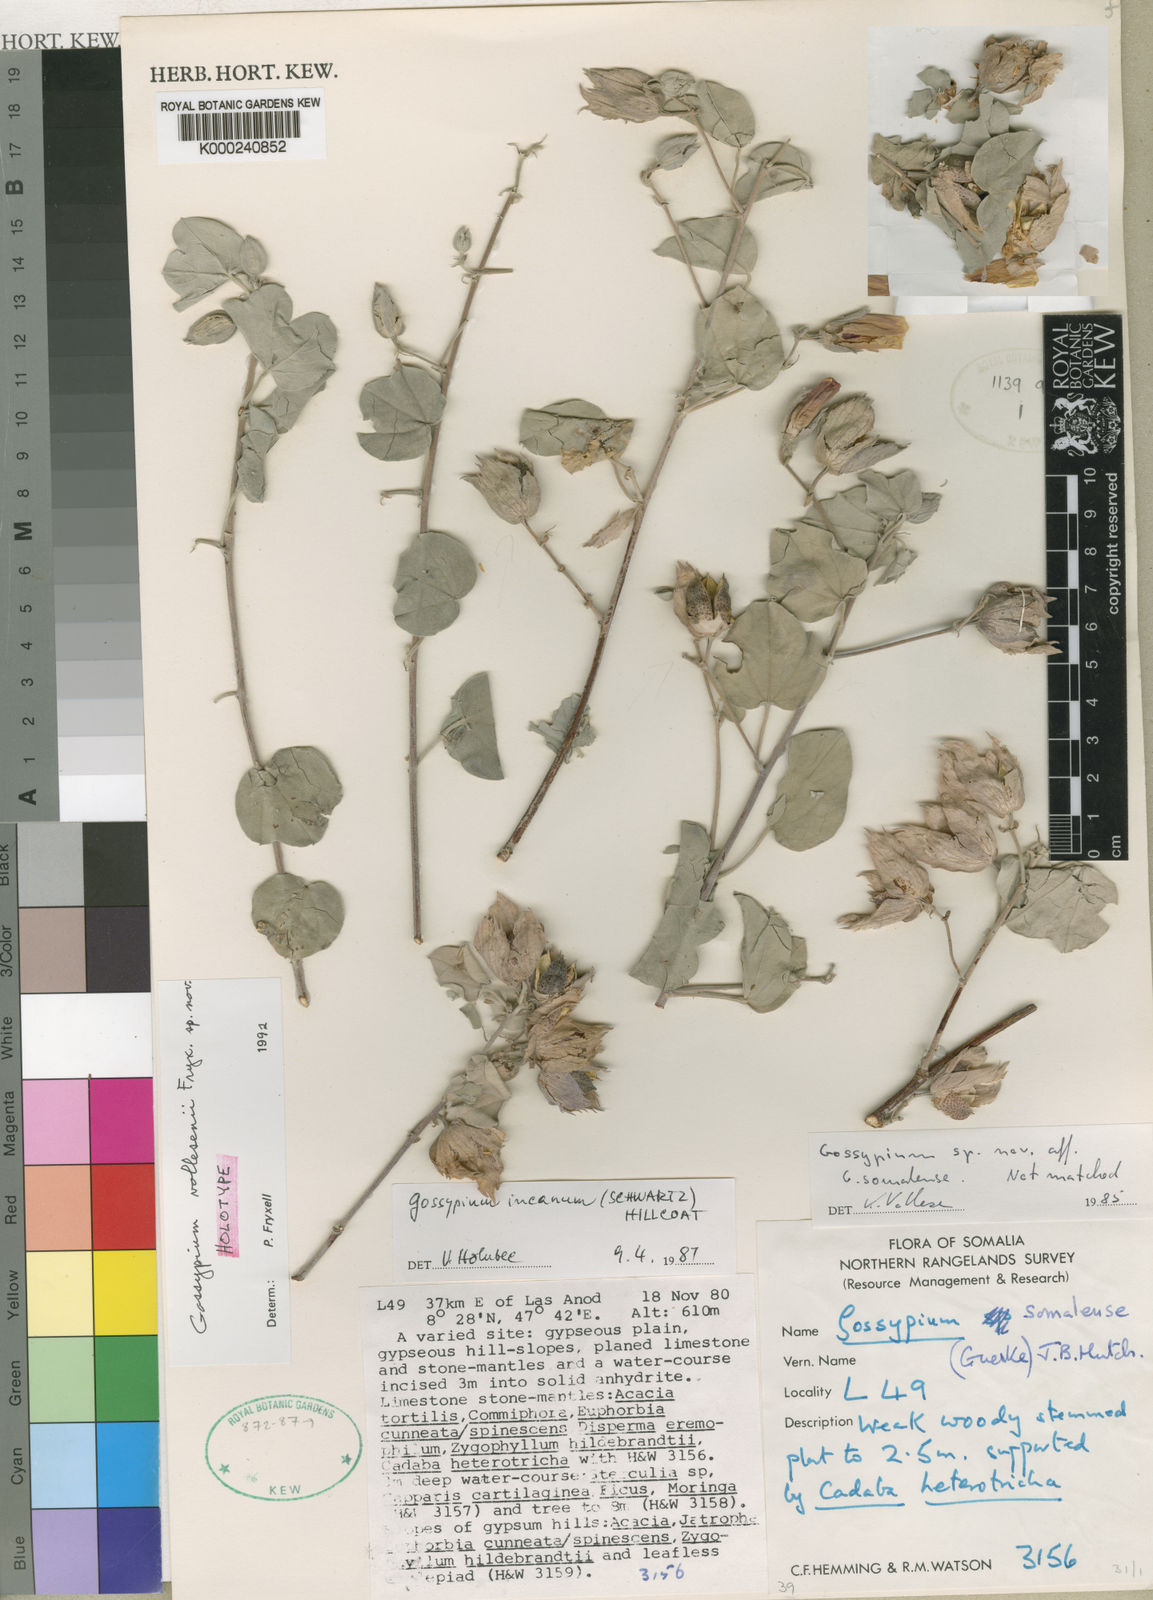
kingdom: Plantae
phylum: Tracheophyta
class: Magnoliopsida
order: Malvales
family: Malvaceae
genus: Gossypium
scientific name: Gossypium vollesenii
